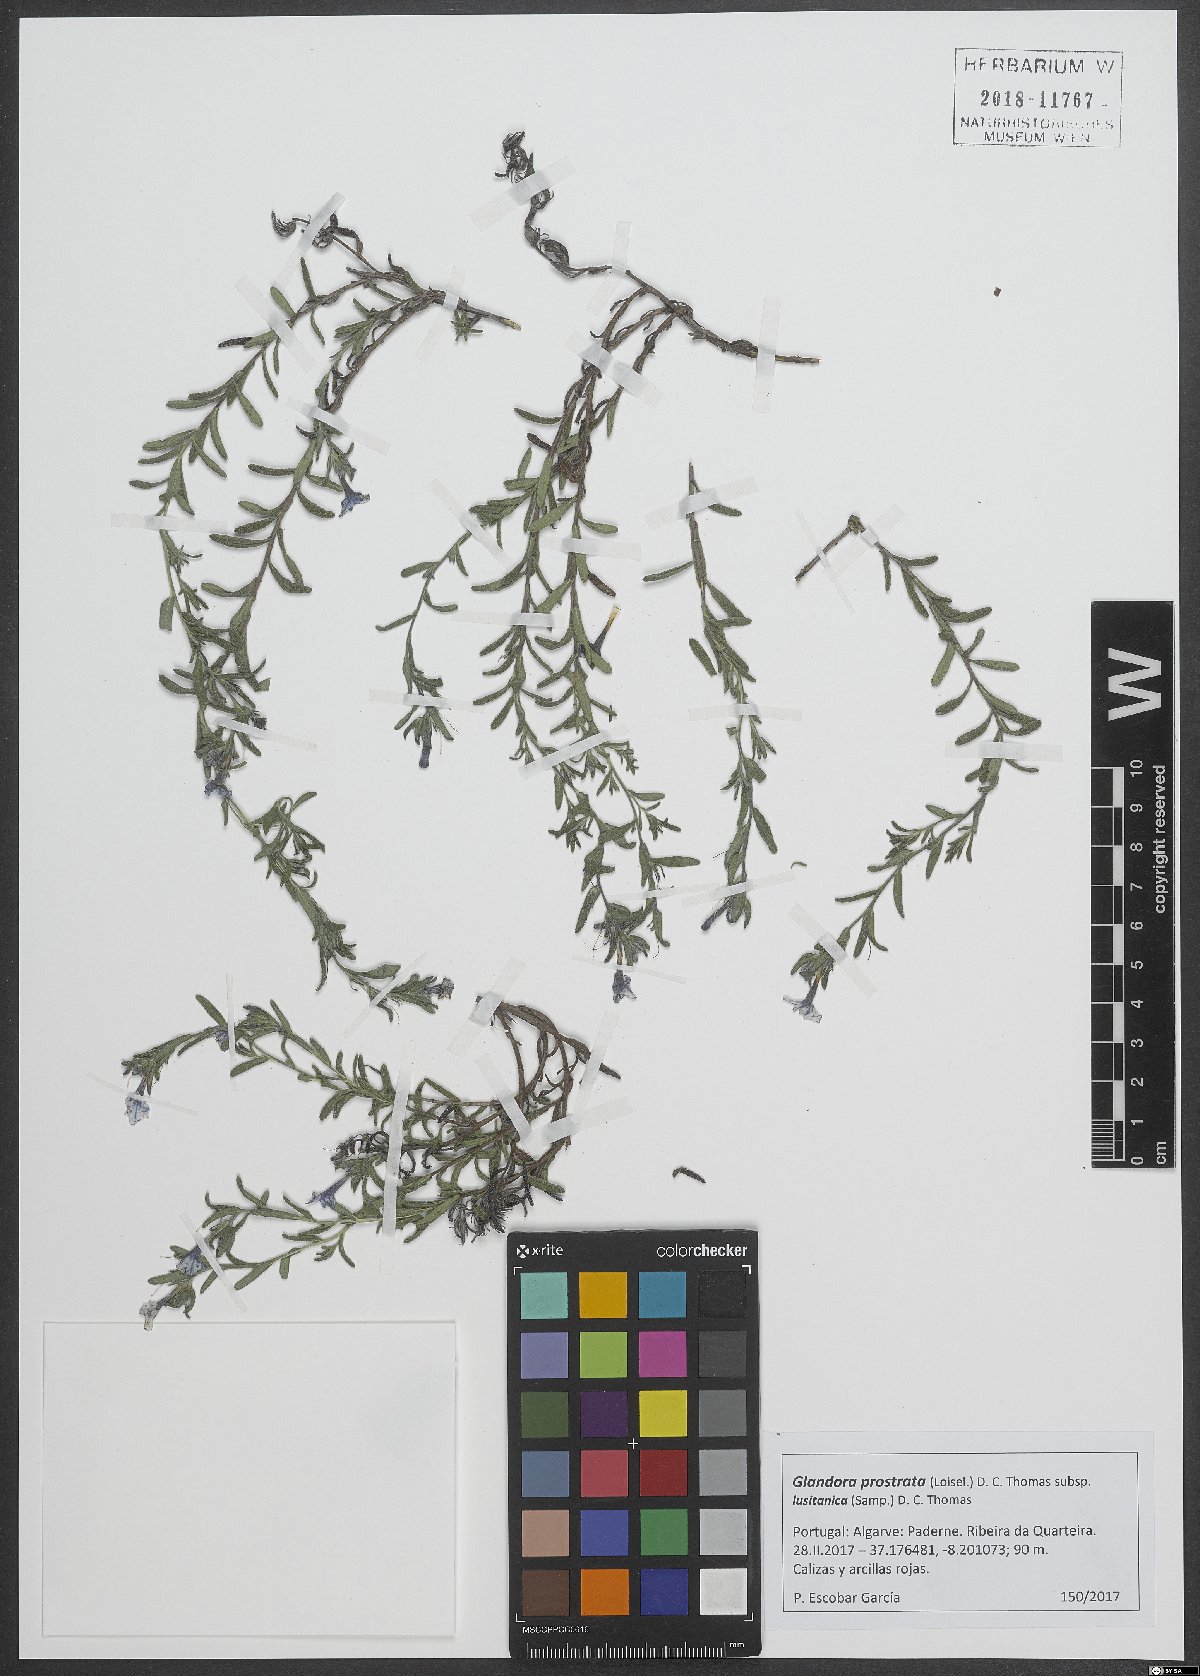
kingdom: Plantae
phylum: Tracheophyta
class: Magnoliopsida
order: Boraginales
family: Boraginaceae
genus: Glandora
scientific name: Glandora prostrata
